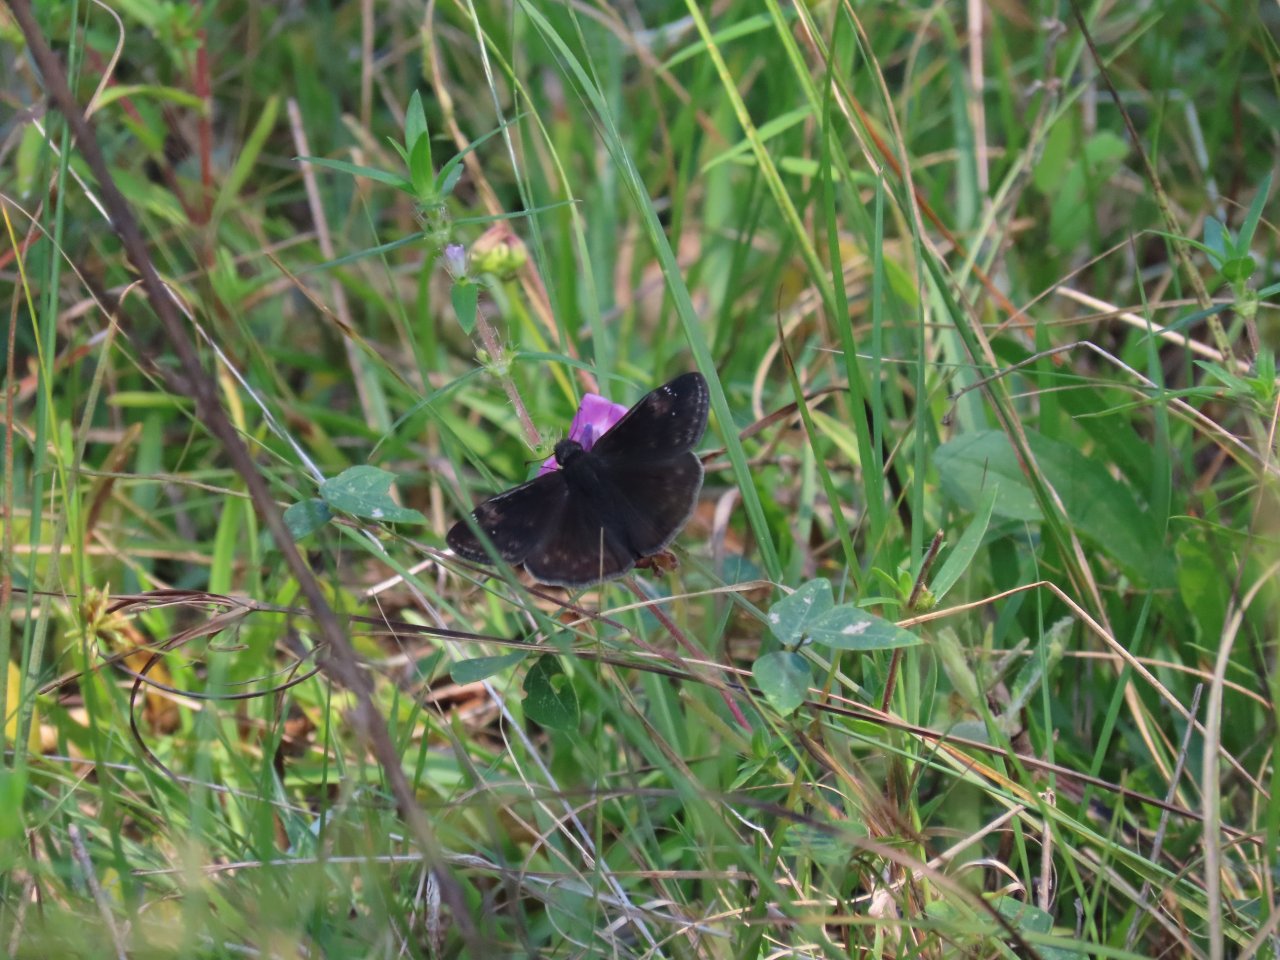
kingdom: Animalia
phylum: Arthropoda
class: Insecta
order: Lepidoptera
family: Hesperiidae
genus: Erynnis
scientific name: Erynnis zarucco
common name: Zarucco Duskywing
